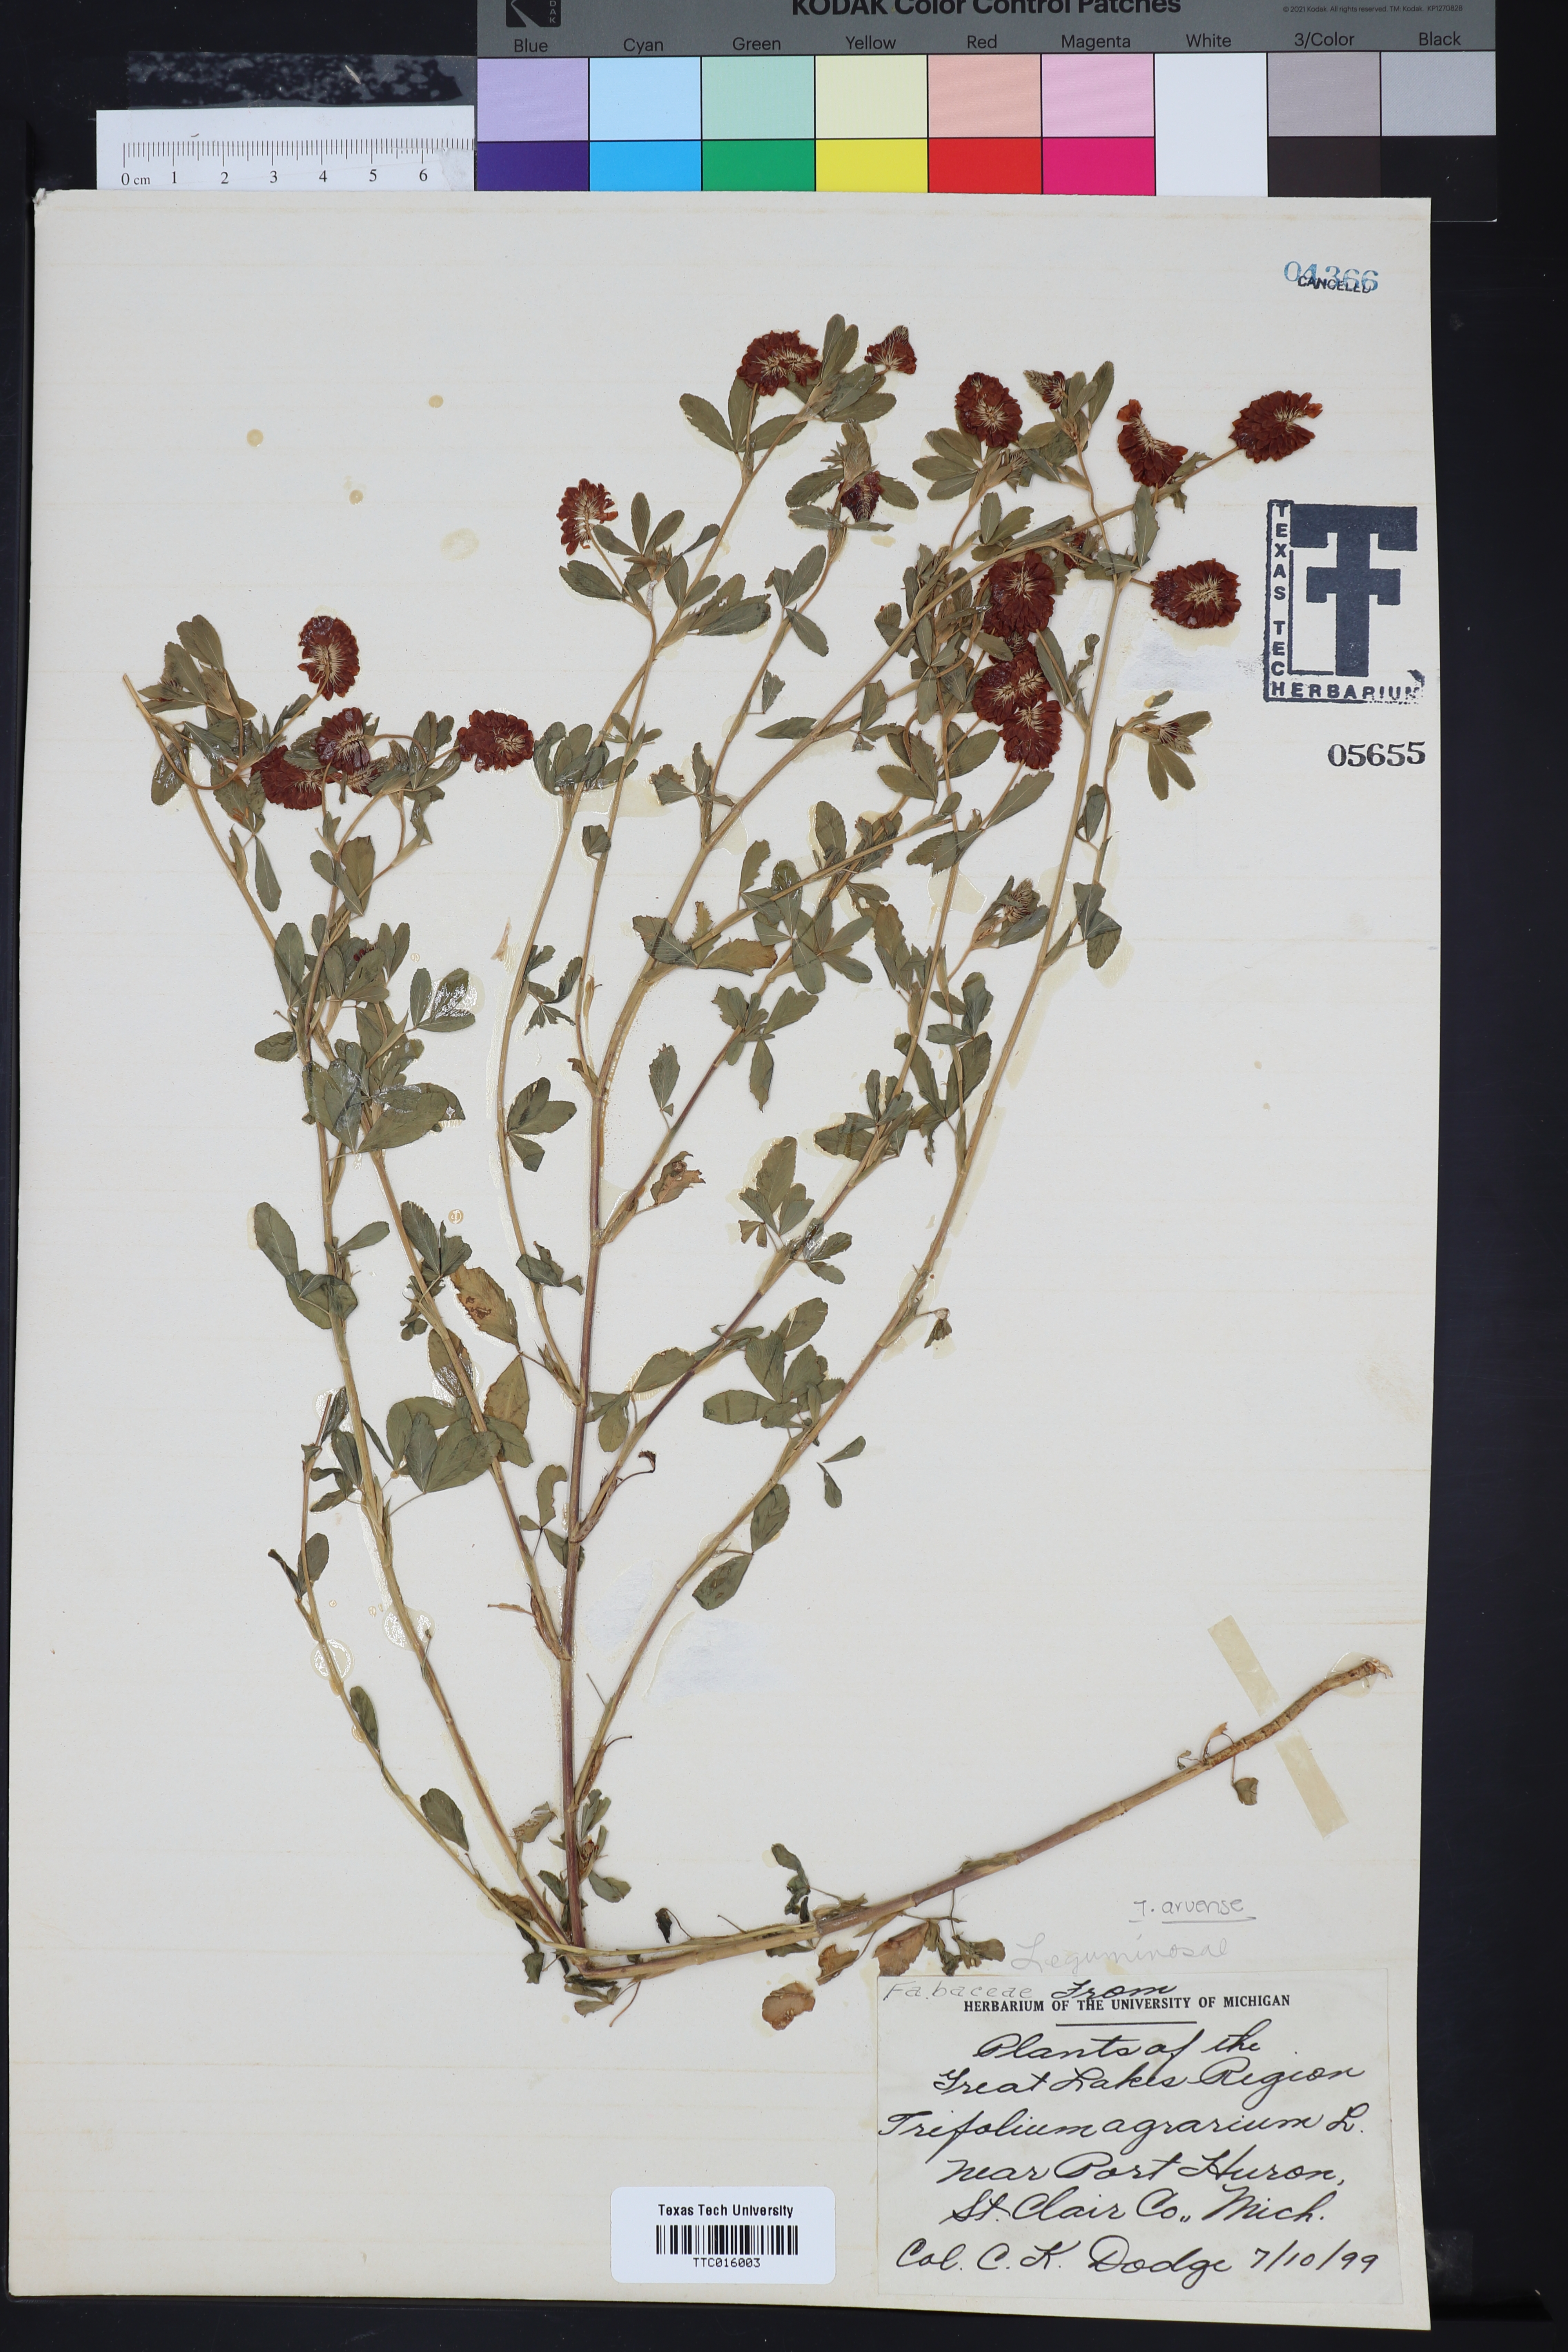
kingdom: Plantae
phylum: Tracheophyta
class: Magnoliopsida
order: Fabales
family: Fabaceae
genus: Trifolium
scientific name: Trifolium agrarium
